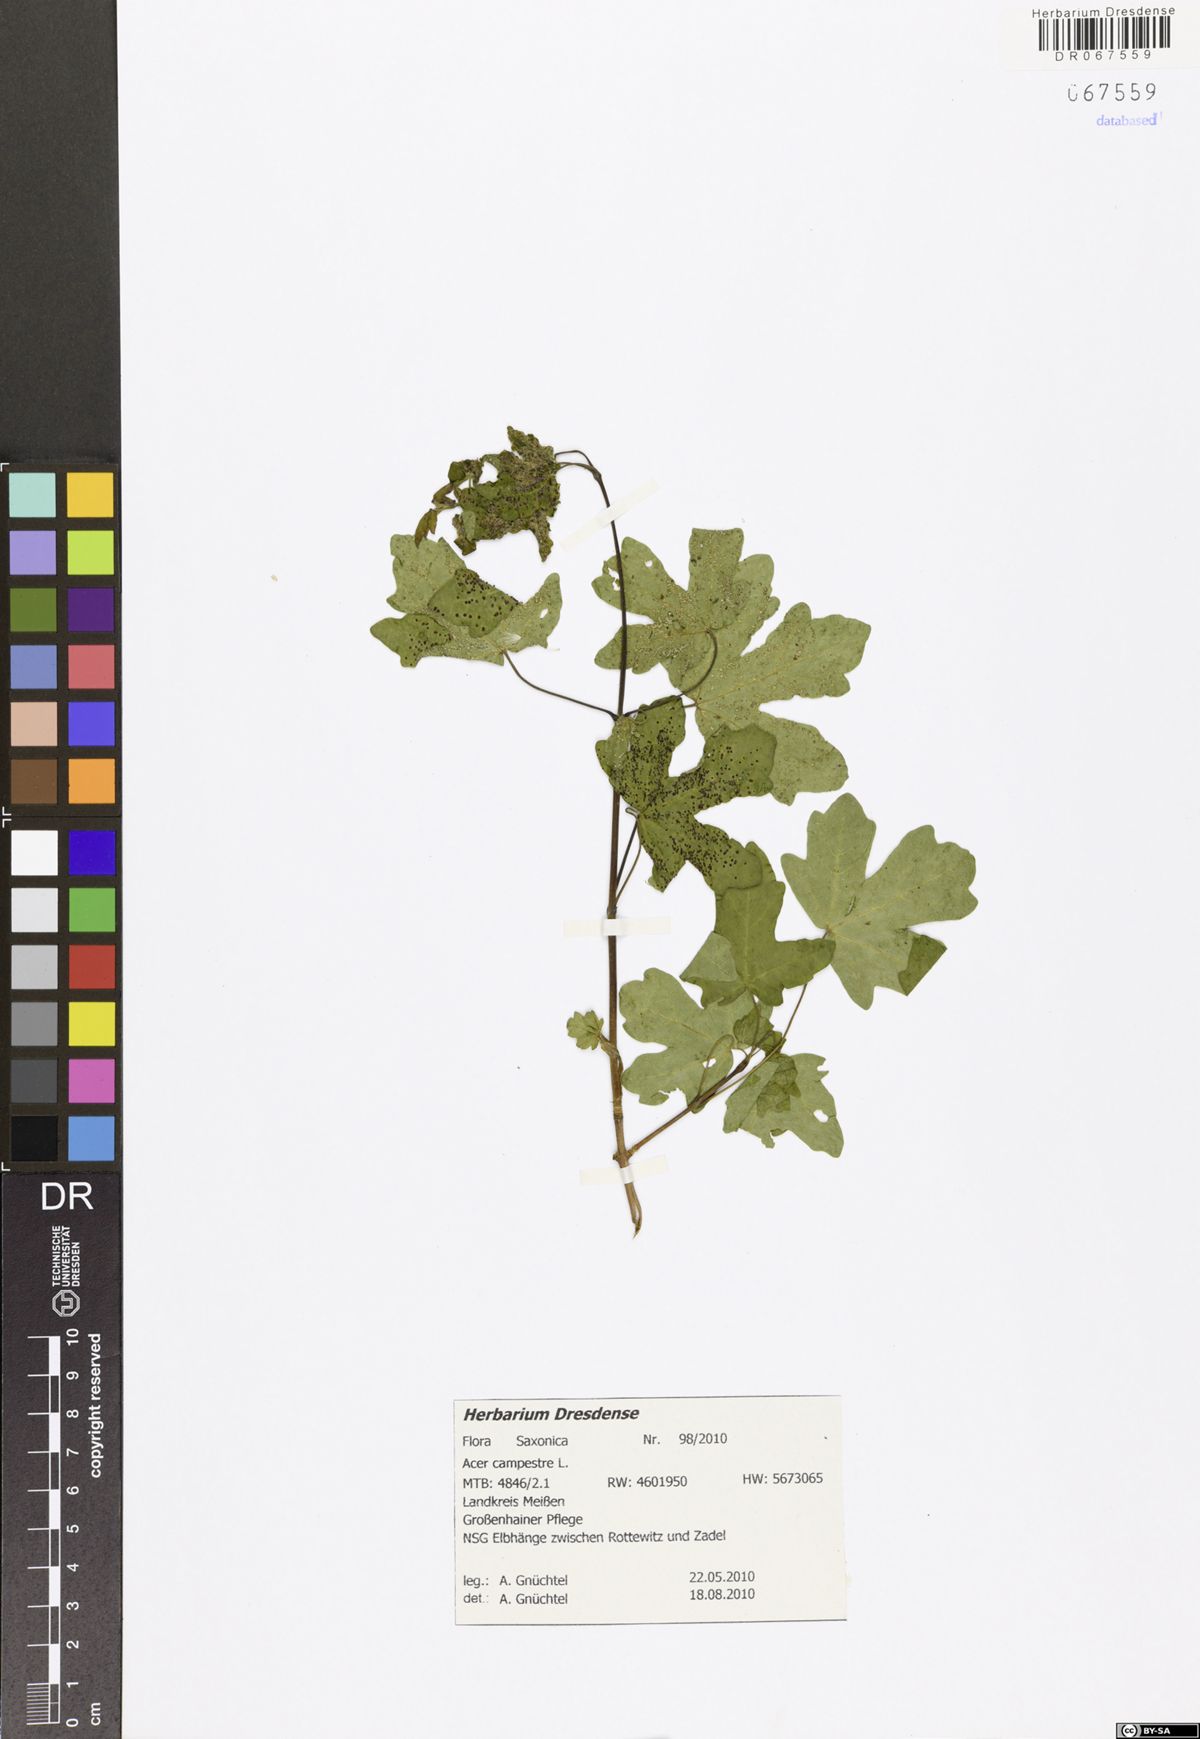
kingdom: Plantae
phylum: Tracheophyta
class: Magnoliopsida
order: Sapindales
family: Sapindaceae
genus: Acer
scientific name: Acer campestre
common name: Field maple
